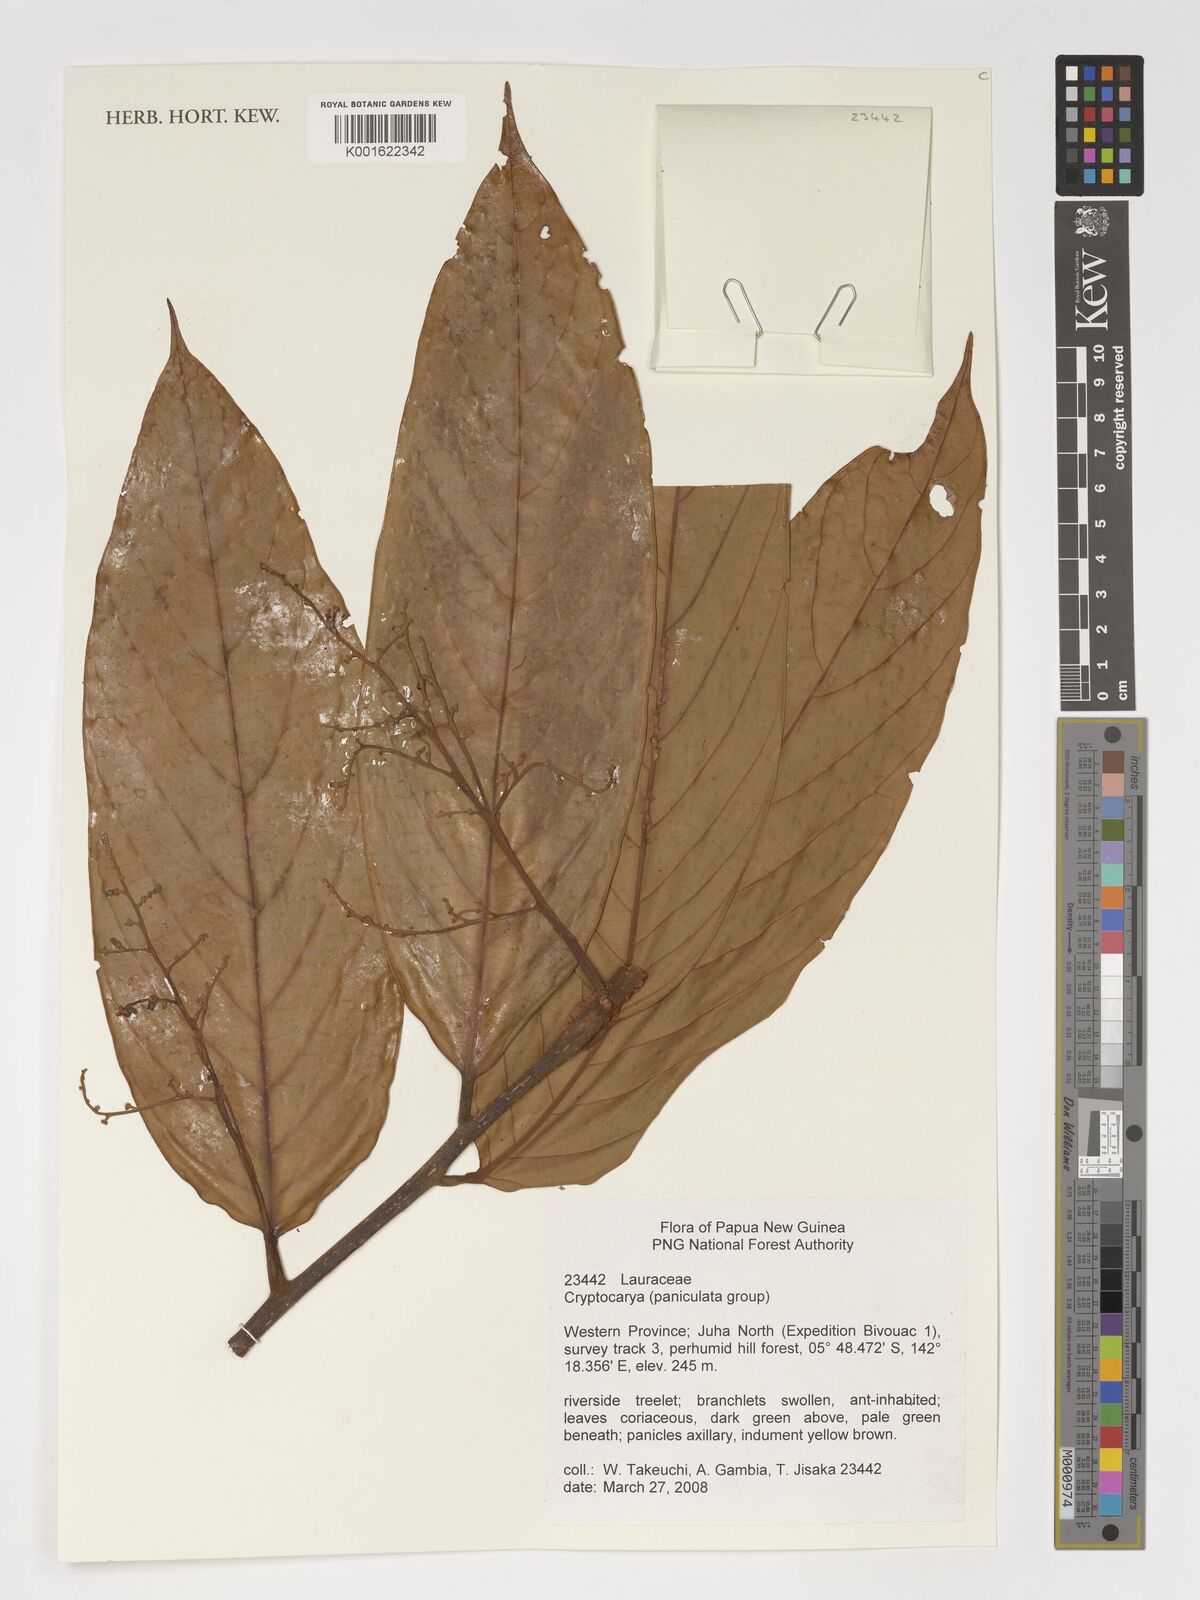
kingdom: Plantae
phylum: Tracheophyta
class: Magnoliopsida
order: Laurales
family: Lauraceae
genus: Cryptocarya
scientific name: Cryptocarya
